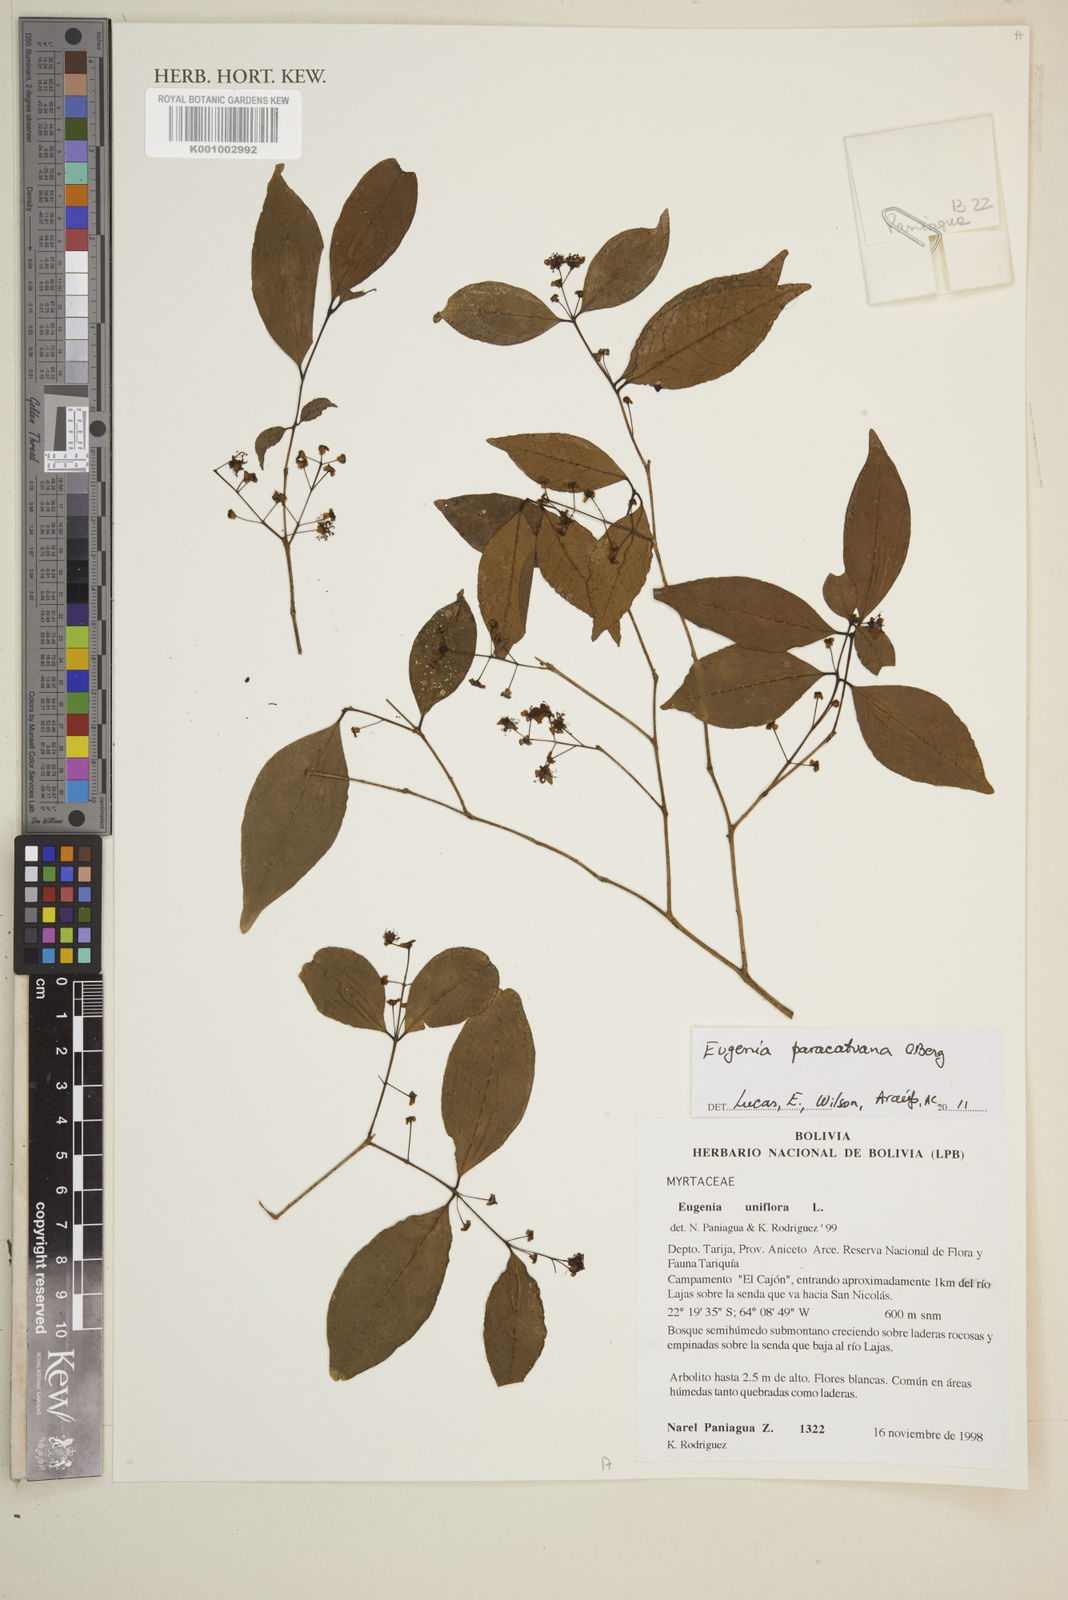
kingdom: Plantae
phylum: Tracheophyta
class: Magnoliopsida
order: Myrtales
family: Myrtaceae
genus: Eugenia
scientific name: Eugenia moraviana
